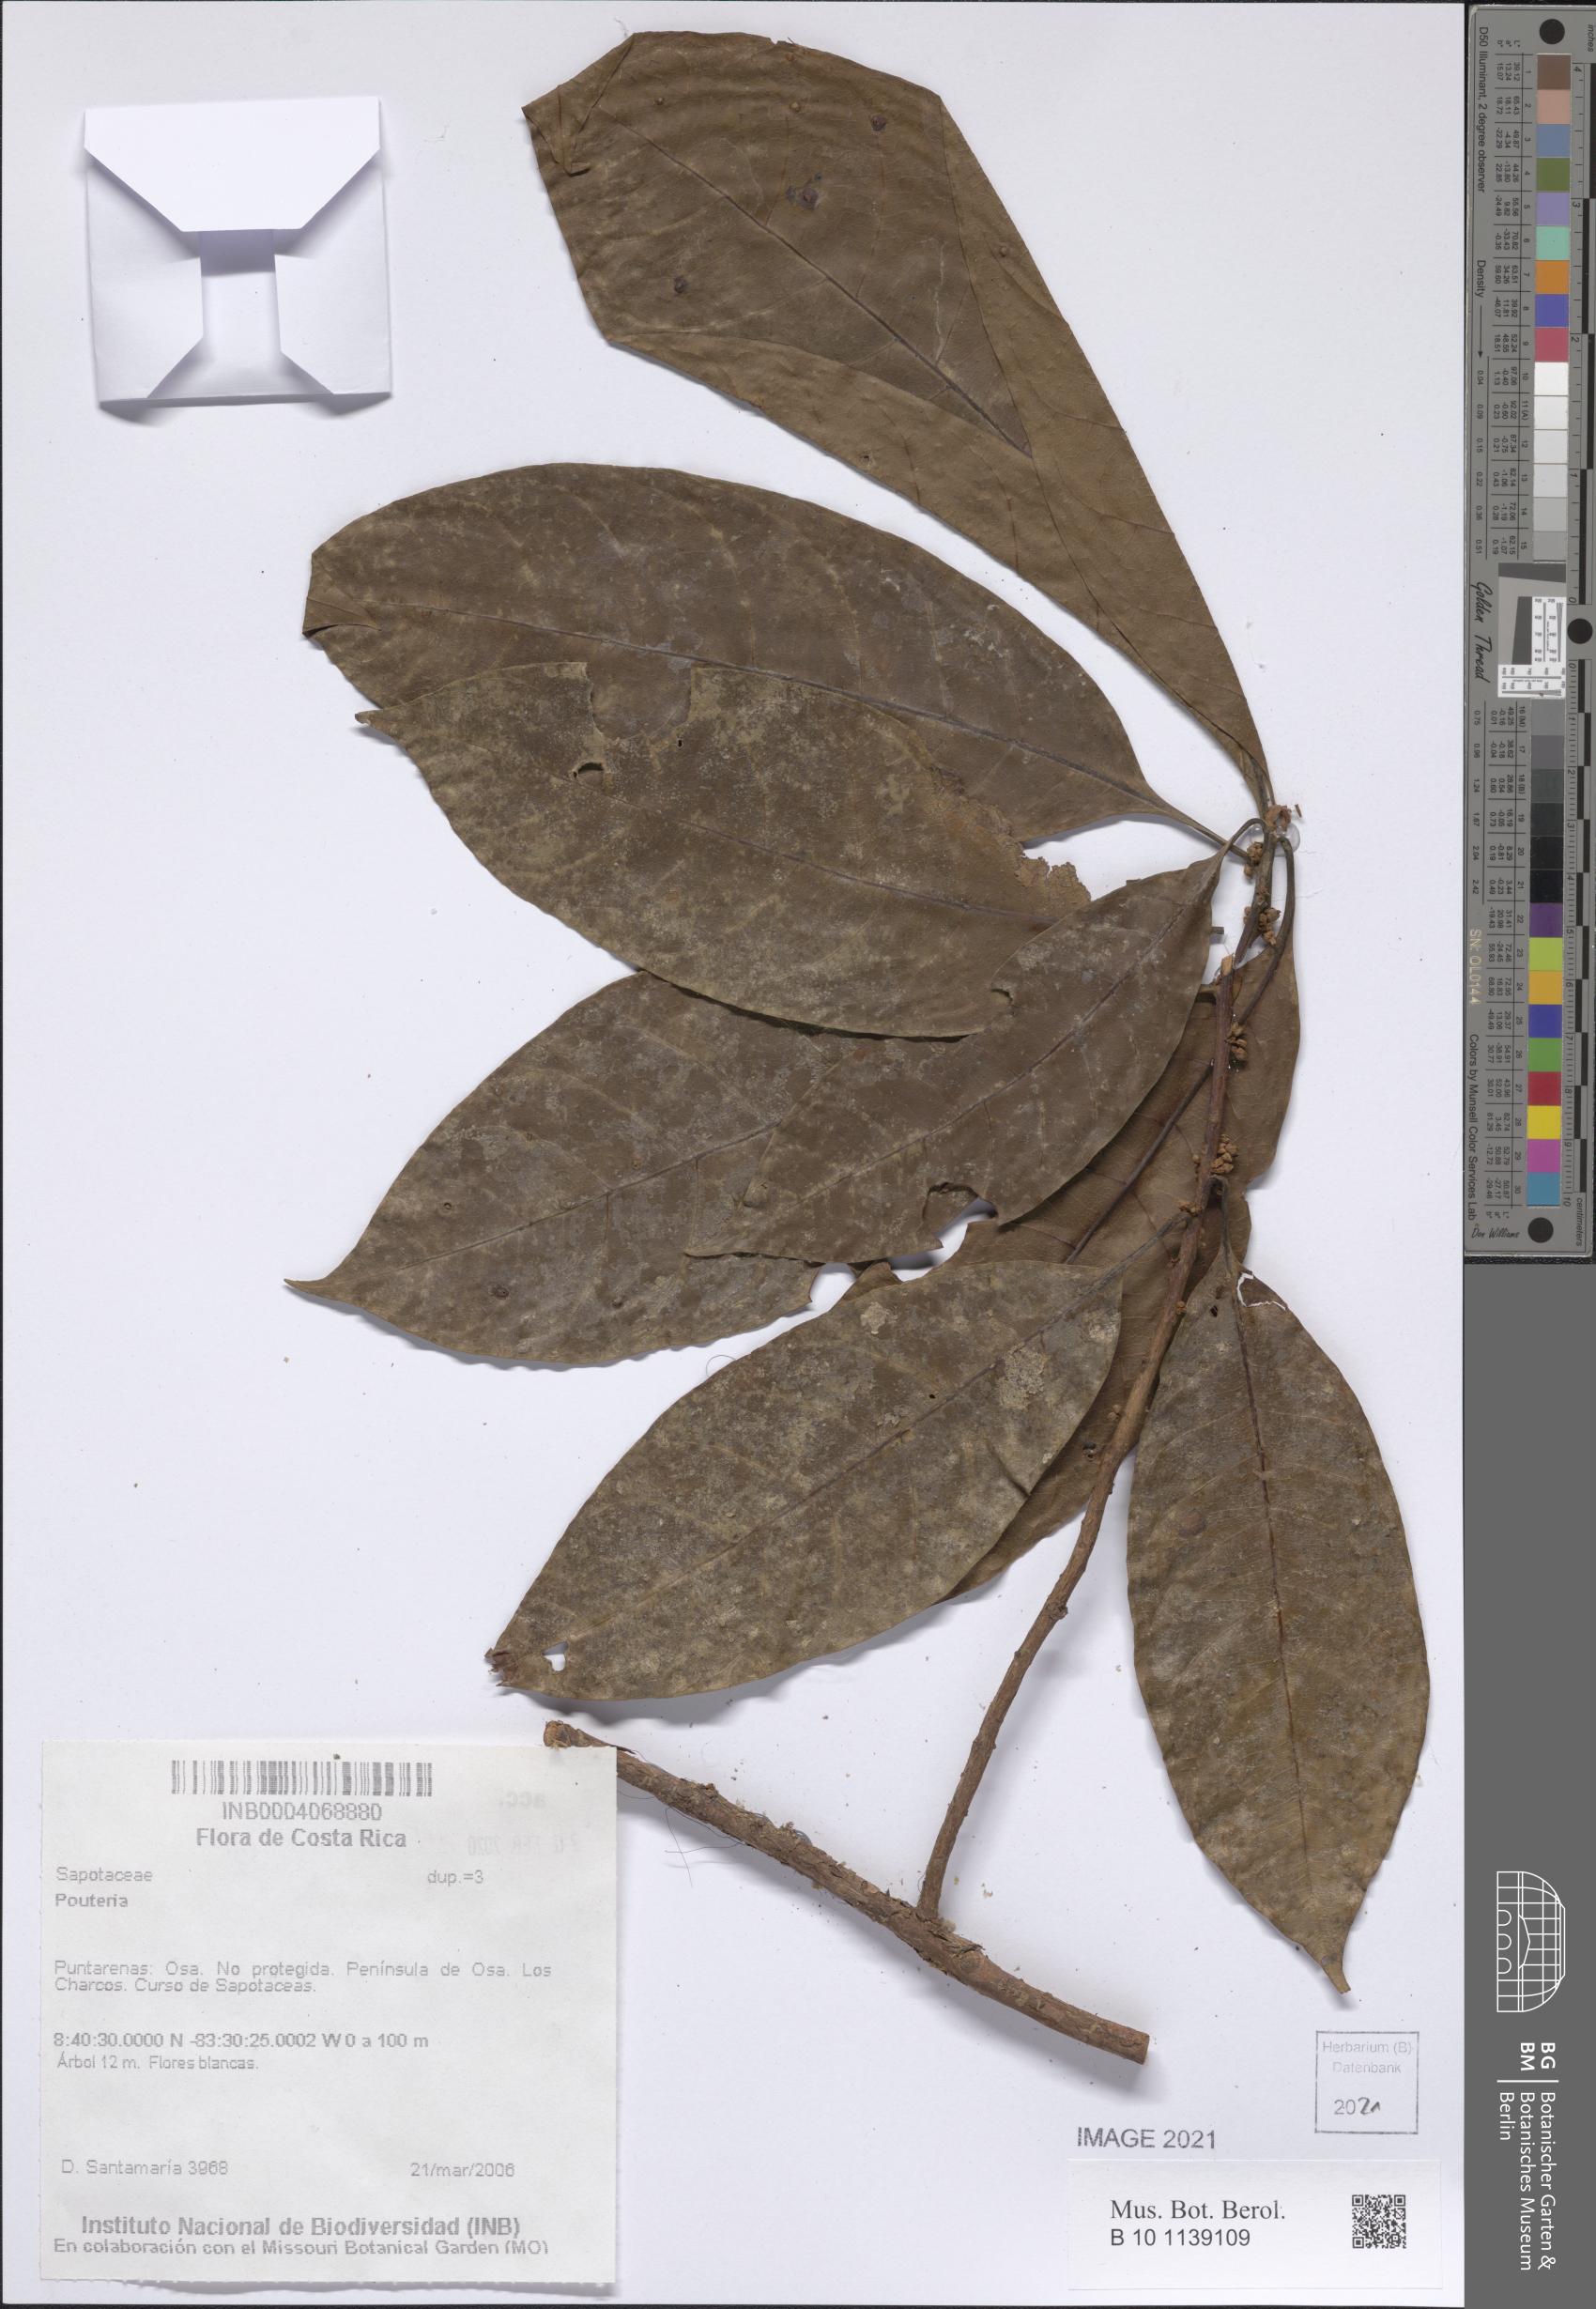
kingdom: Plantae
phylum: Tracheophyta
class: Magnoliopsida
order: Ericales
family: Sapotaceae
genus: Pouteria
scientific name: Pouteria
